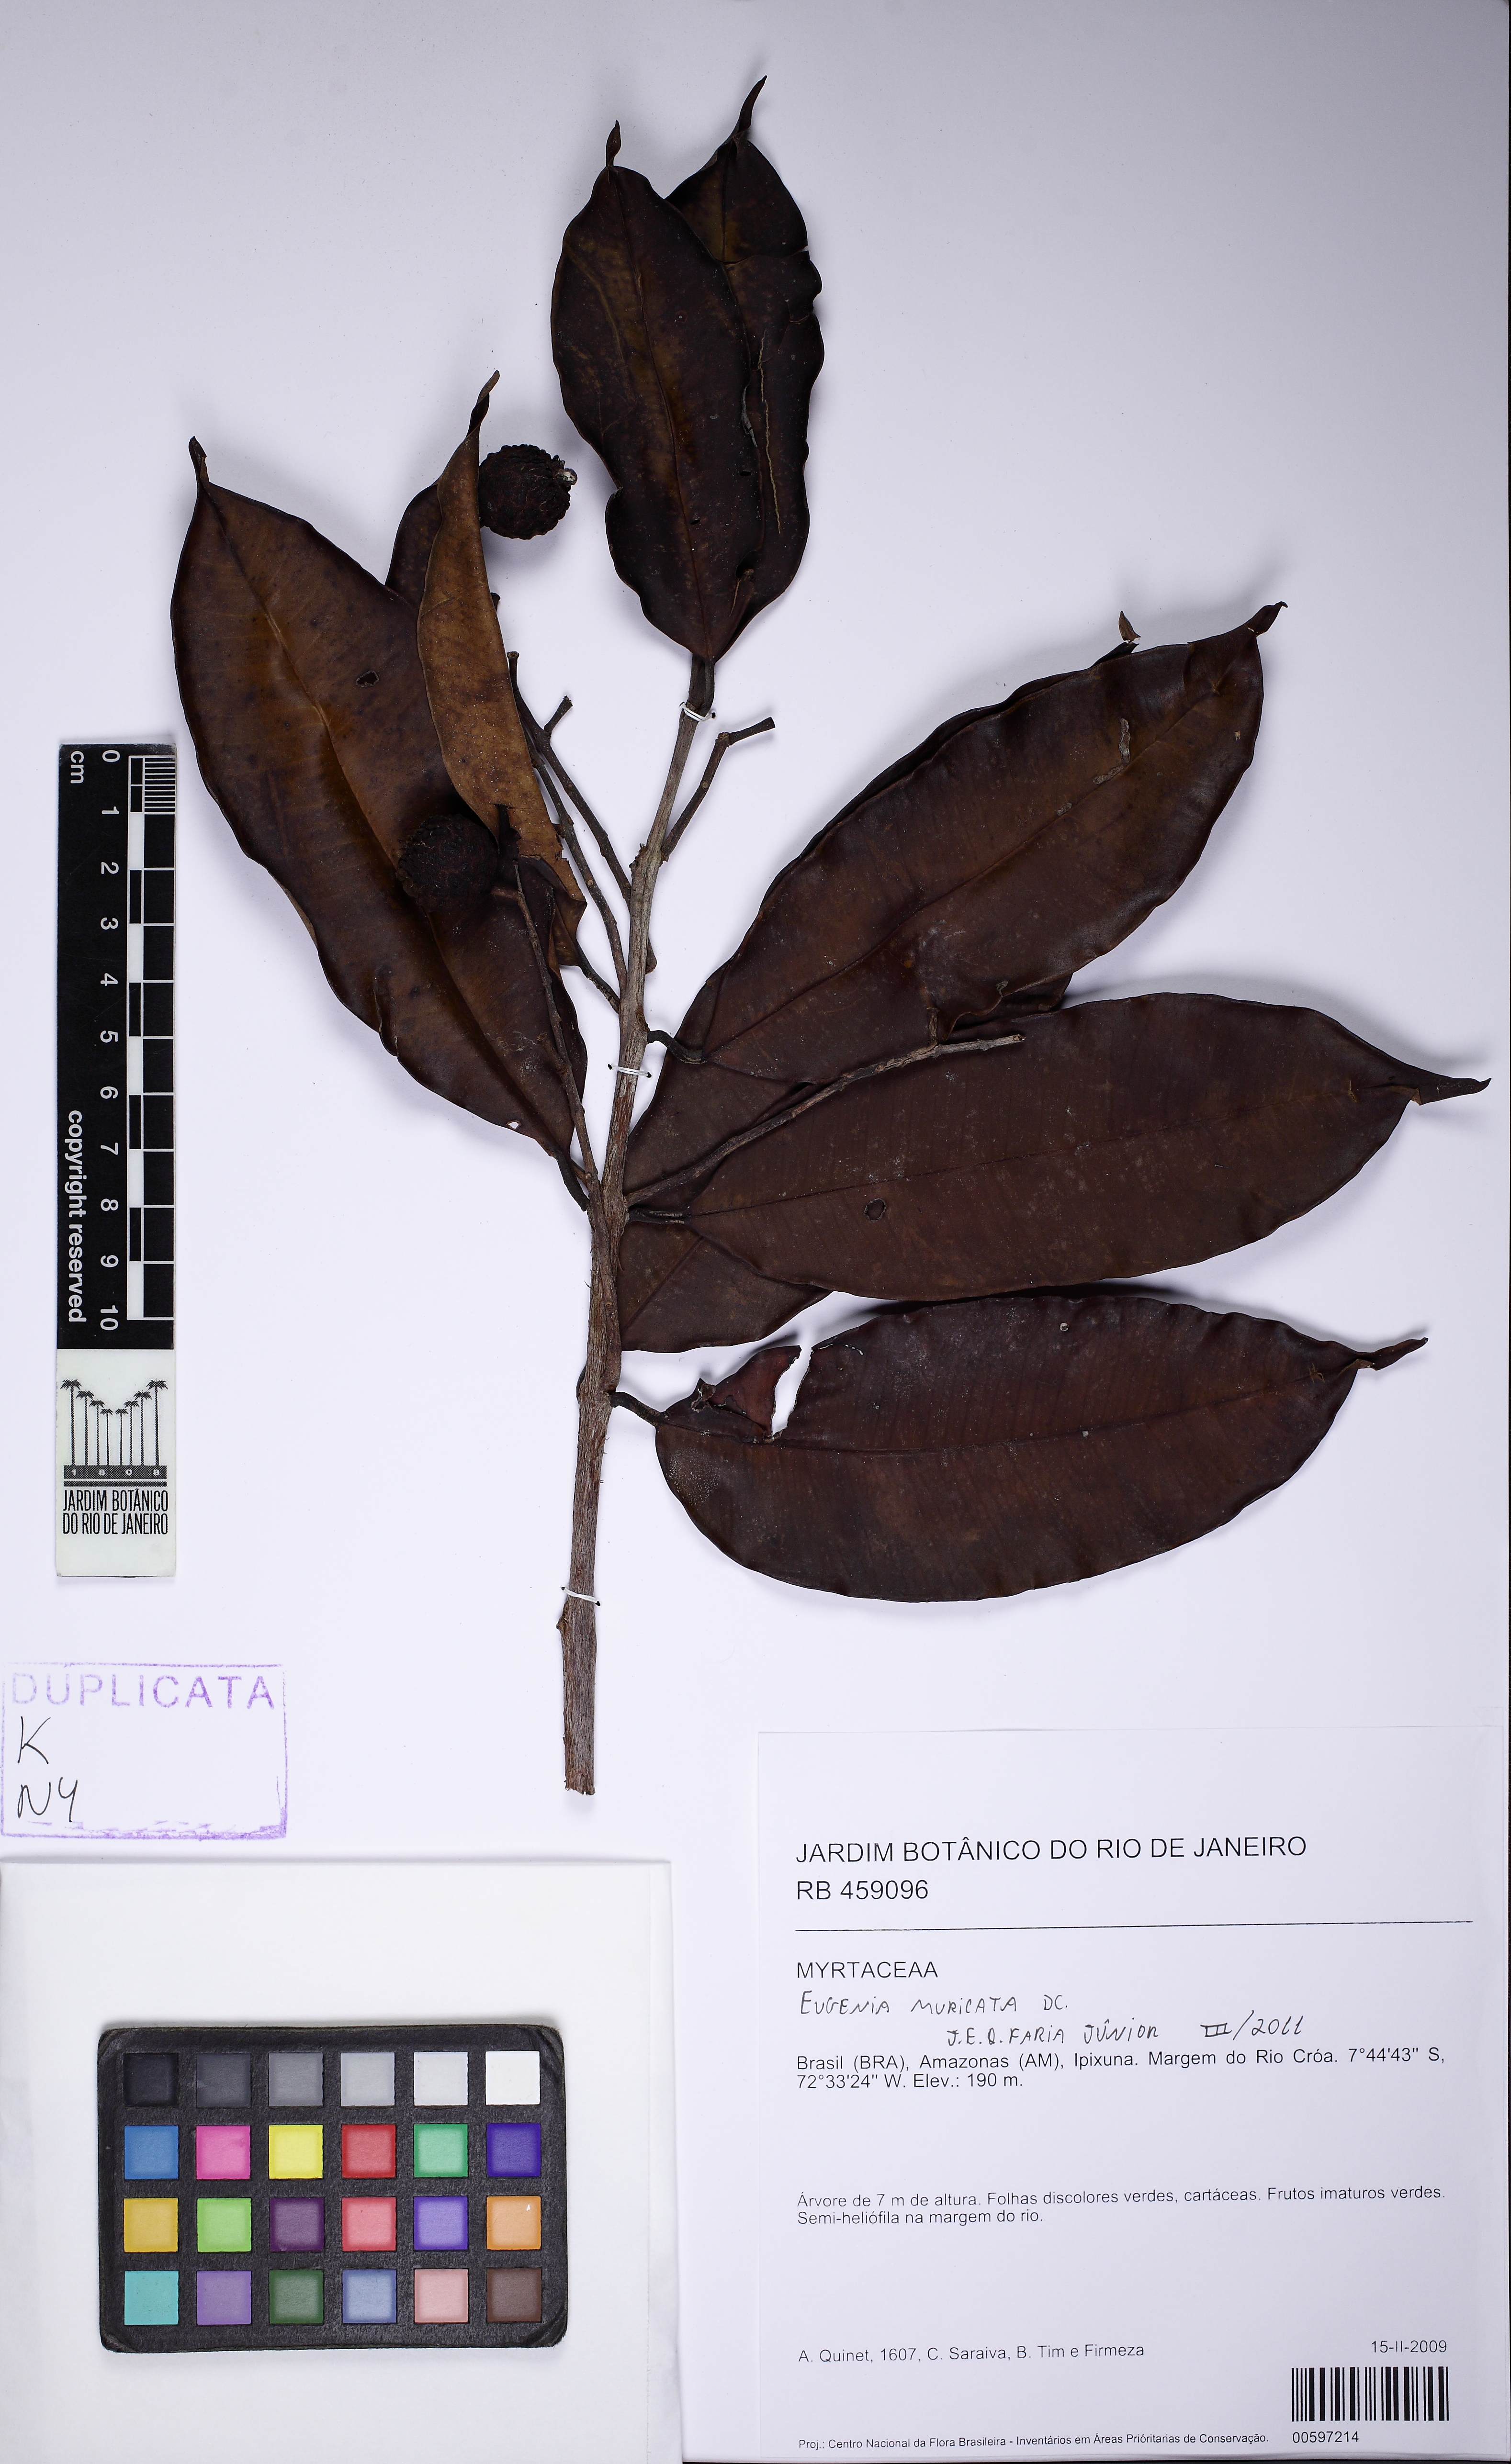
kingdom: Plantae
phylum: Tracheophyta
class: Magnoliopsida
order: Myrtales
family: Myrtaceae
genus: Eugenia
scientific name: Eugenia muricata
